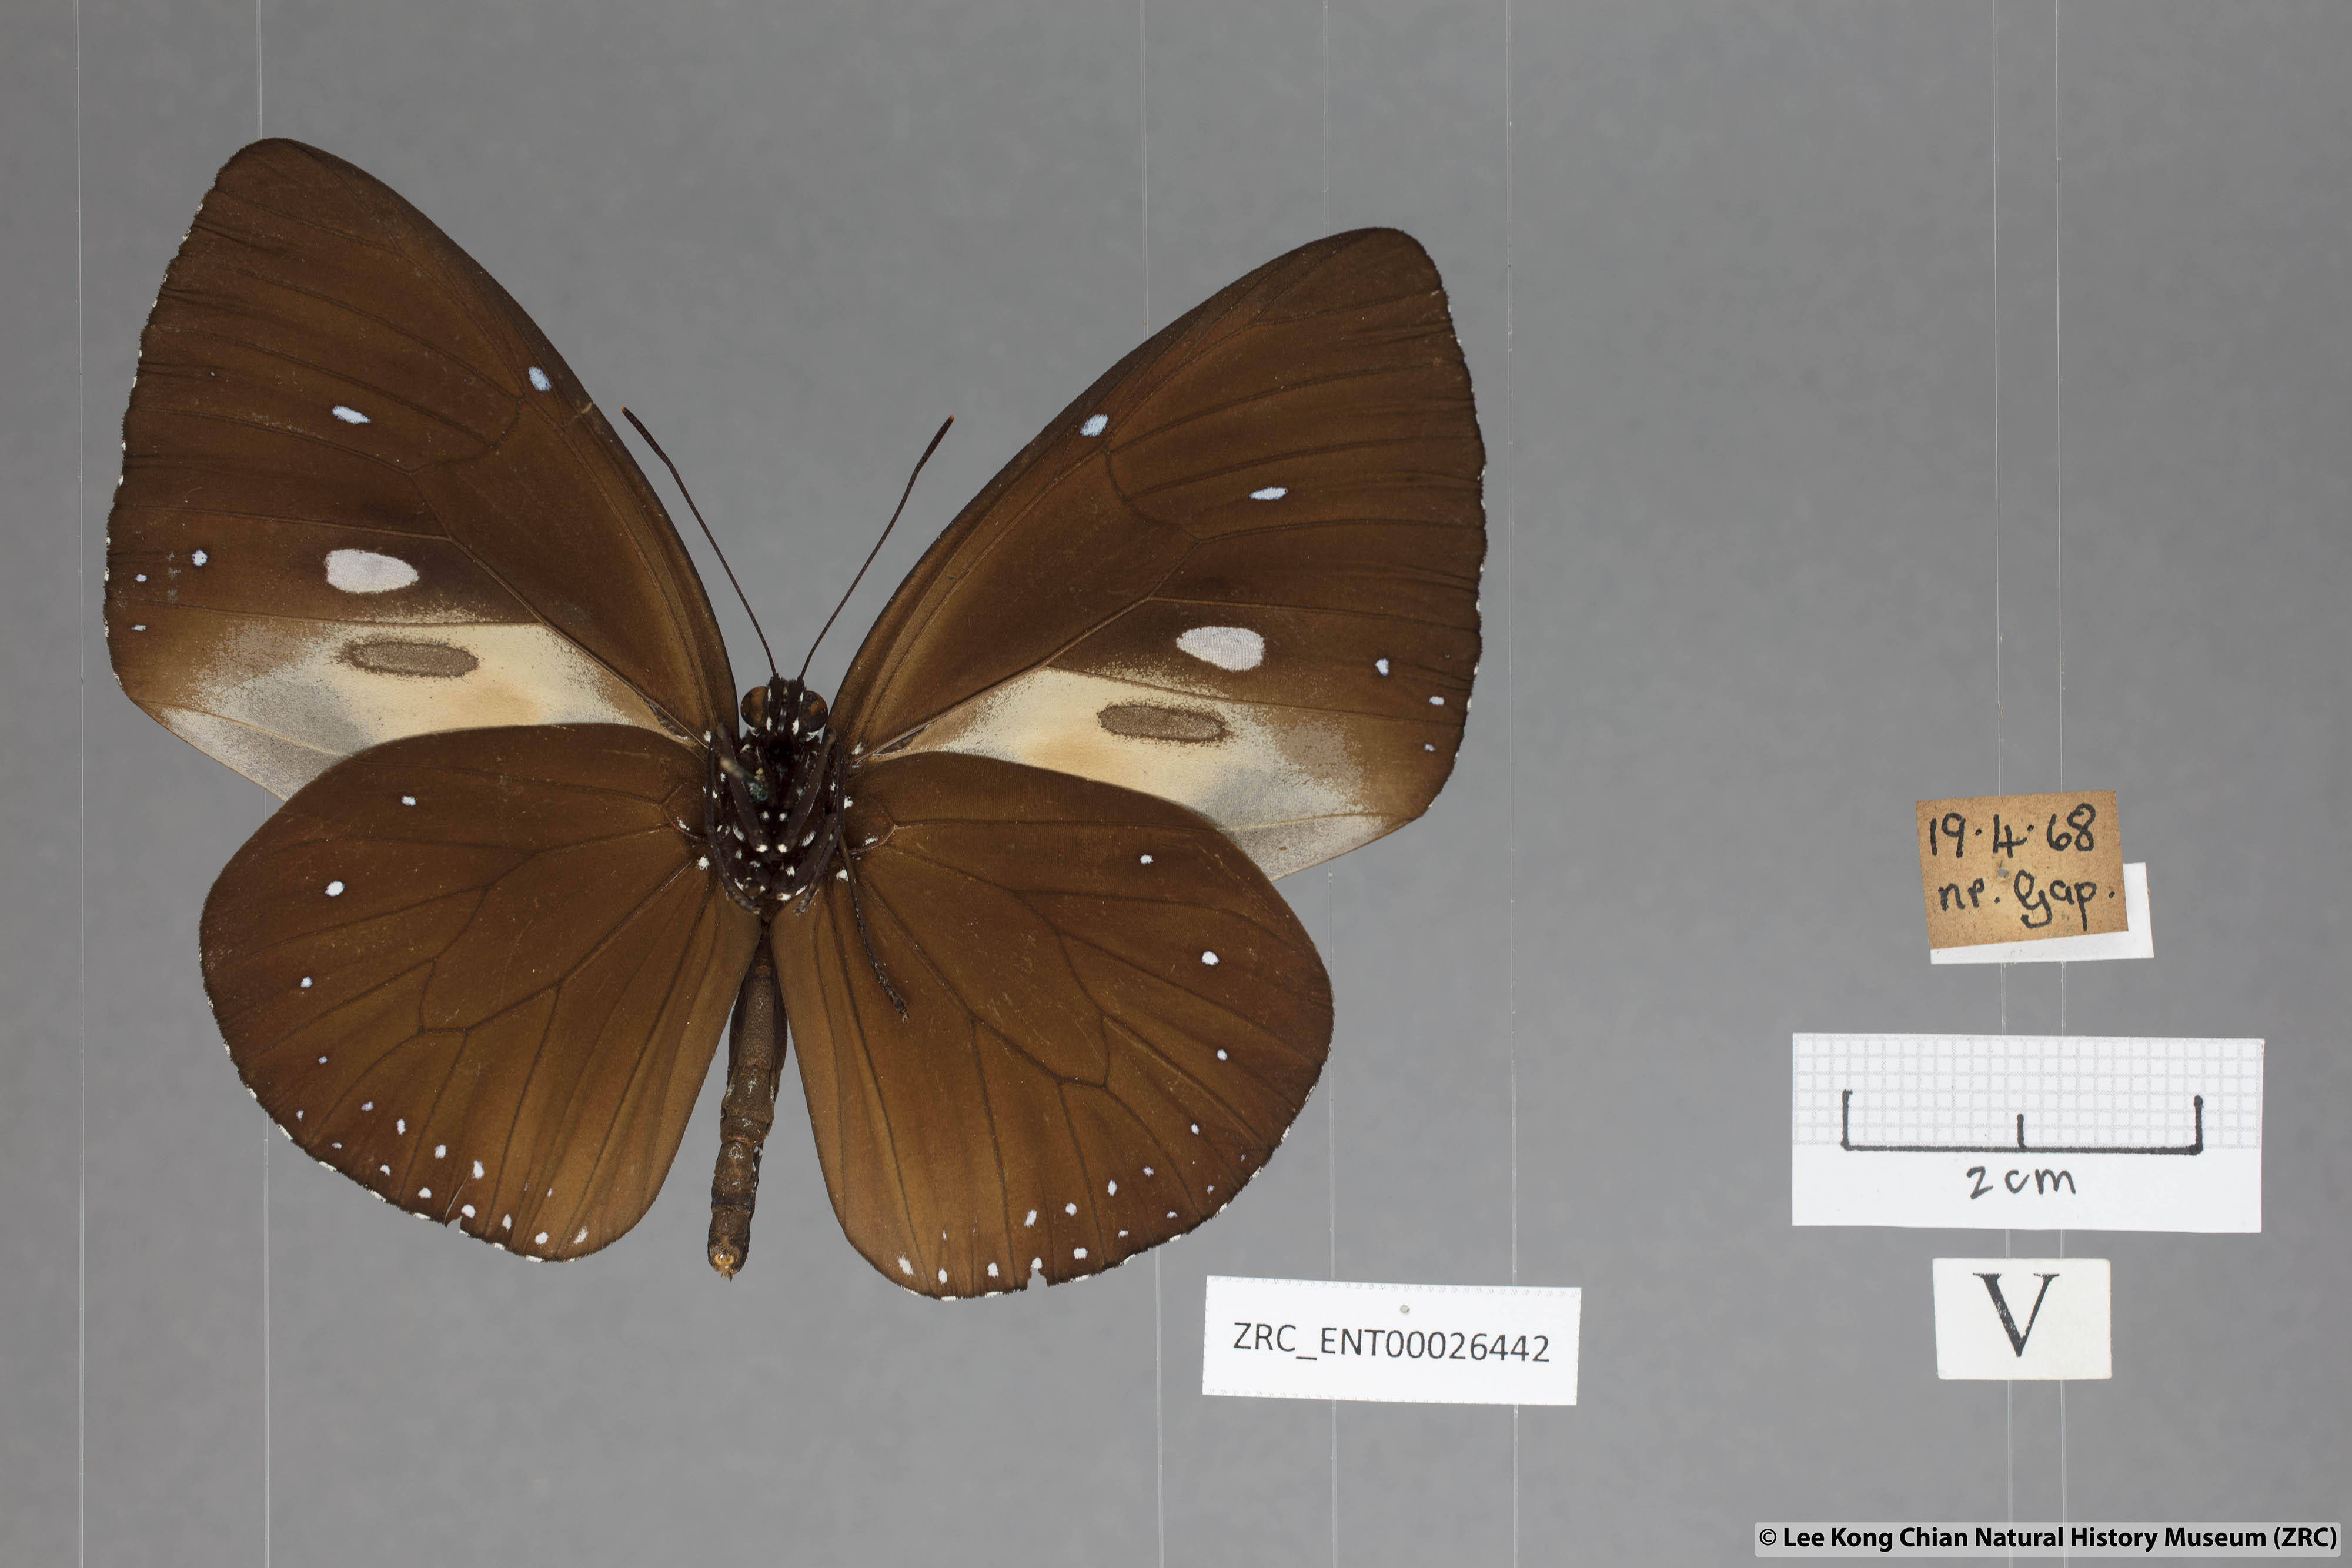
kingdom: Animalia
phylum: Arthropoda
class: Insecta
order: Lepidoptera
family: Nymphalidae
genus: Euploea
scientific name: Euploea eunice
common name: Blue-banded king crow butterfly
